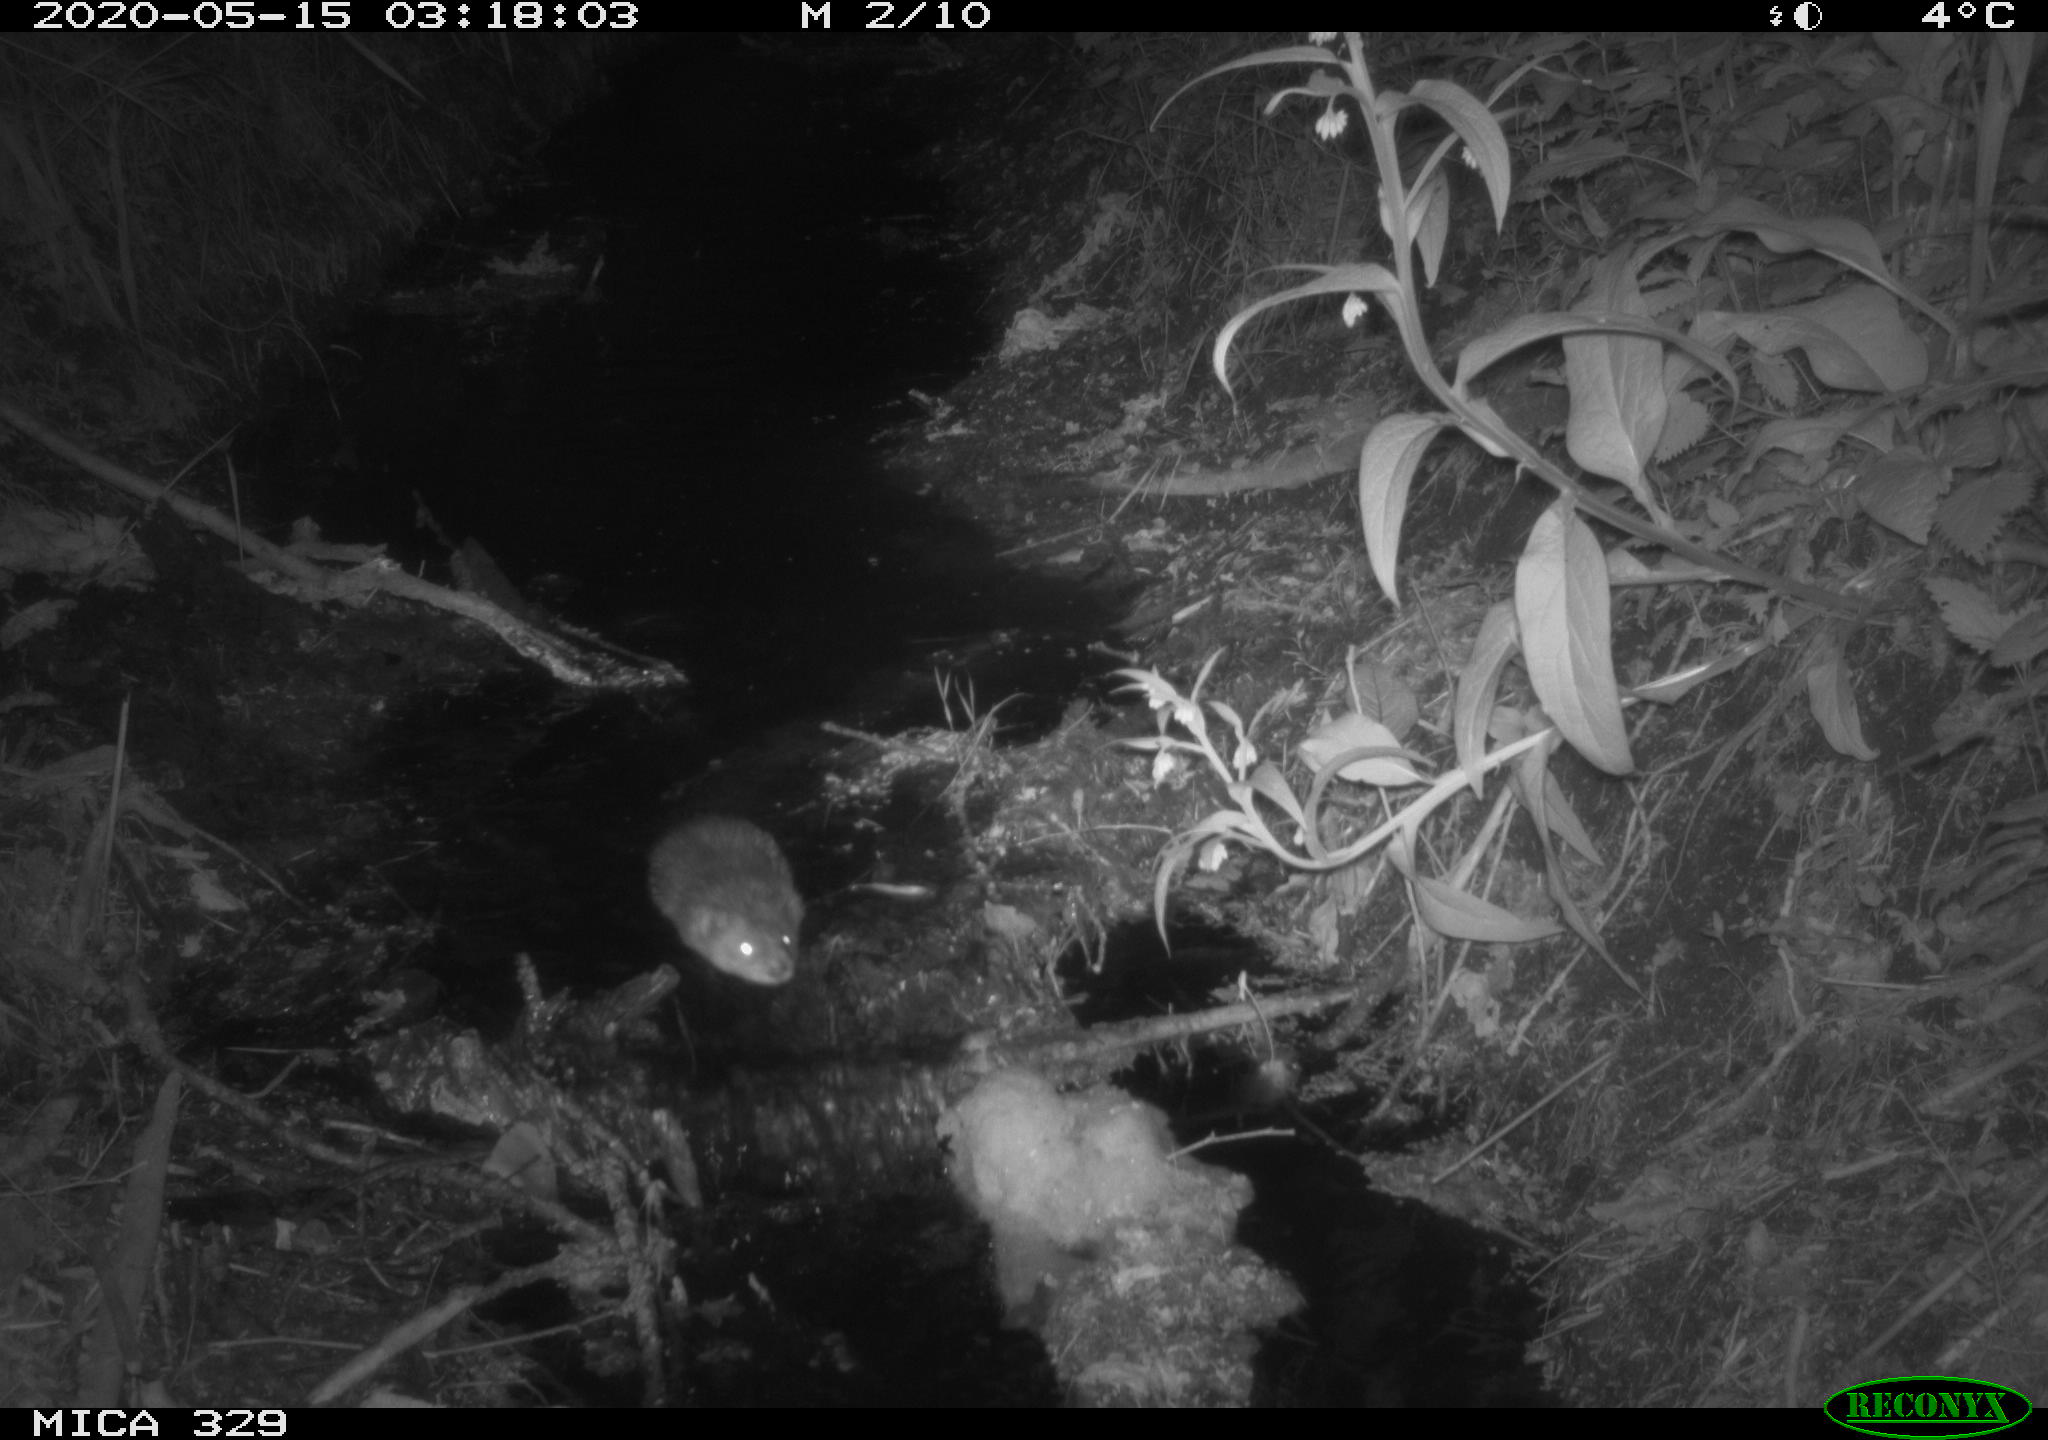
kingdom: Animalia
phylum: Chordata
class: Mammalia
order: Rodentia
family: Cricetidae
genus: Ondatra
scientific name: Ondatra zibethicus
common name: Muskrat
